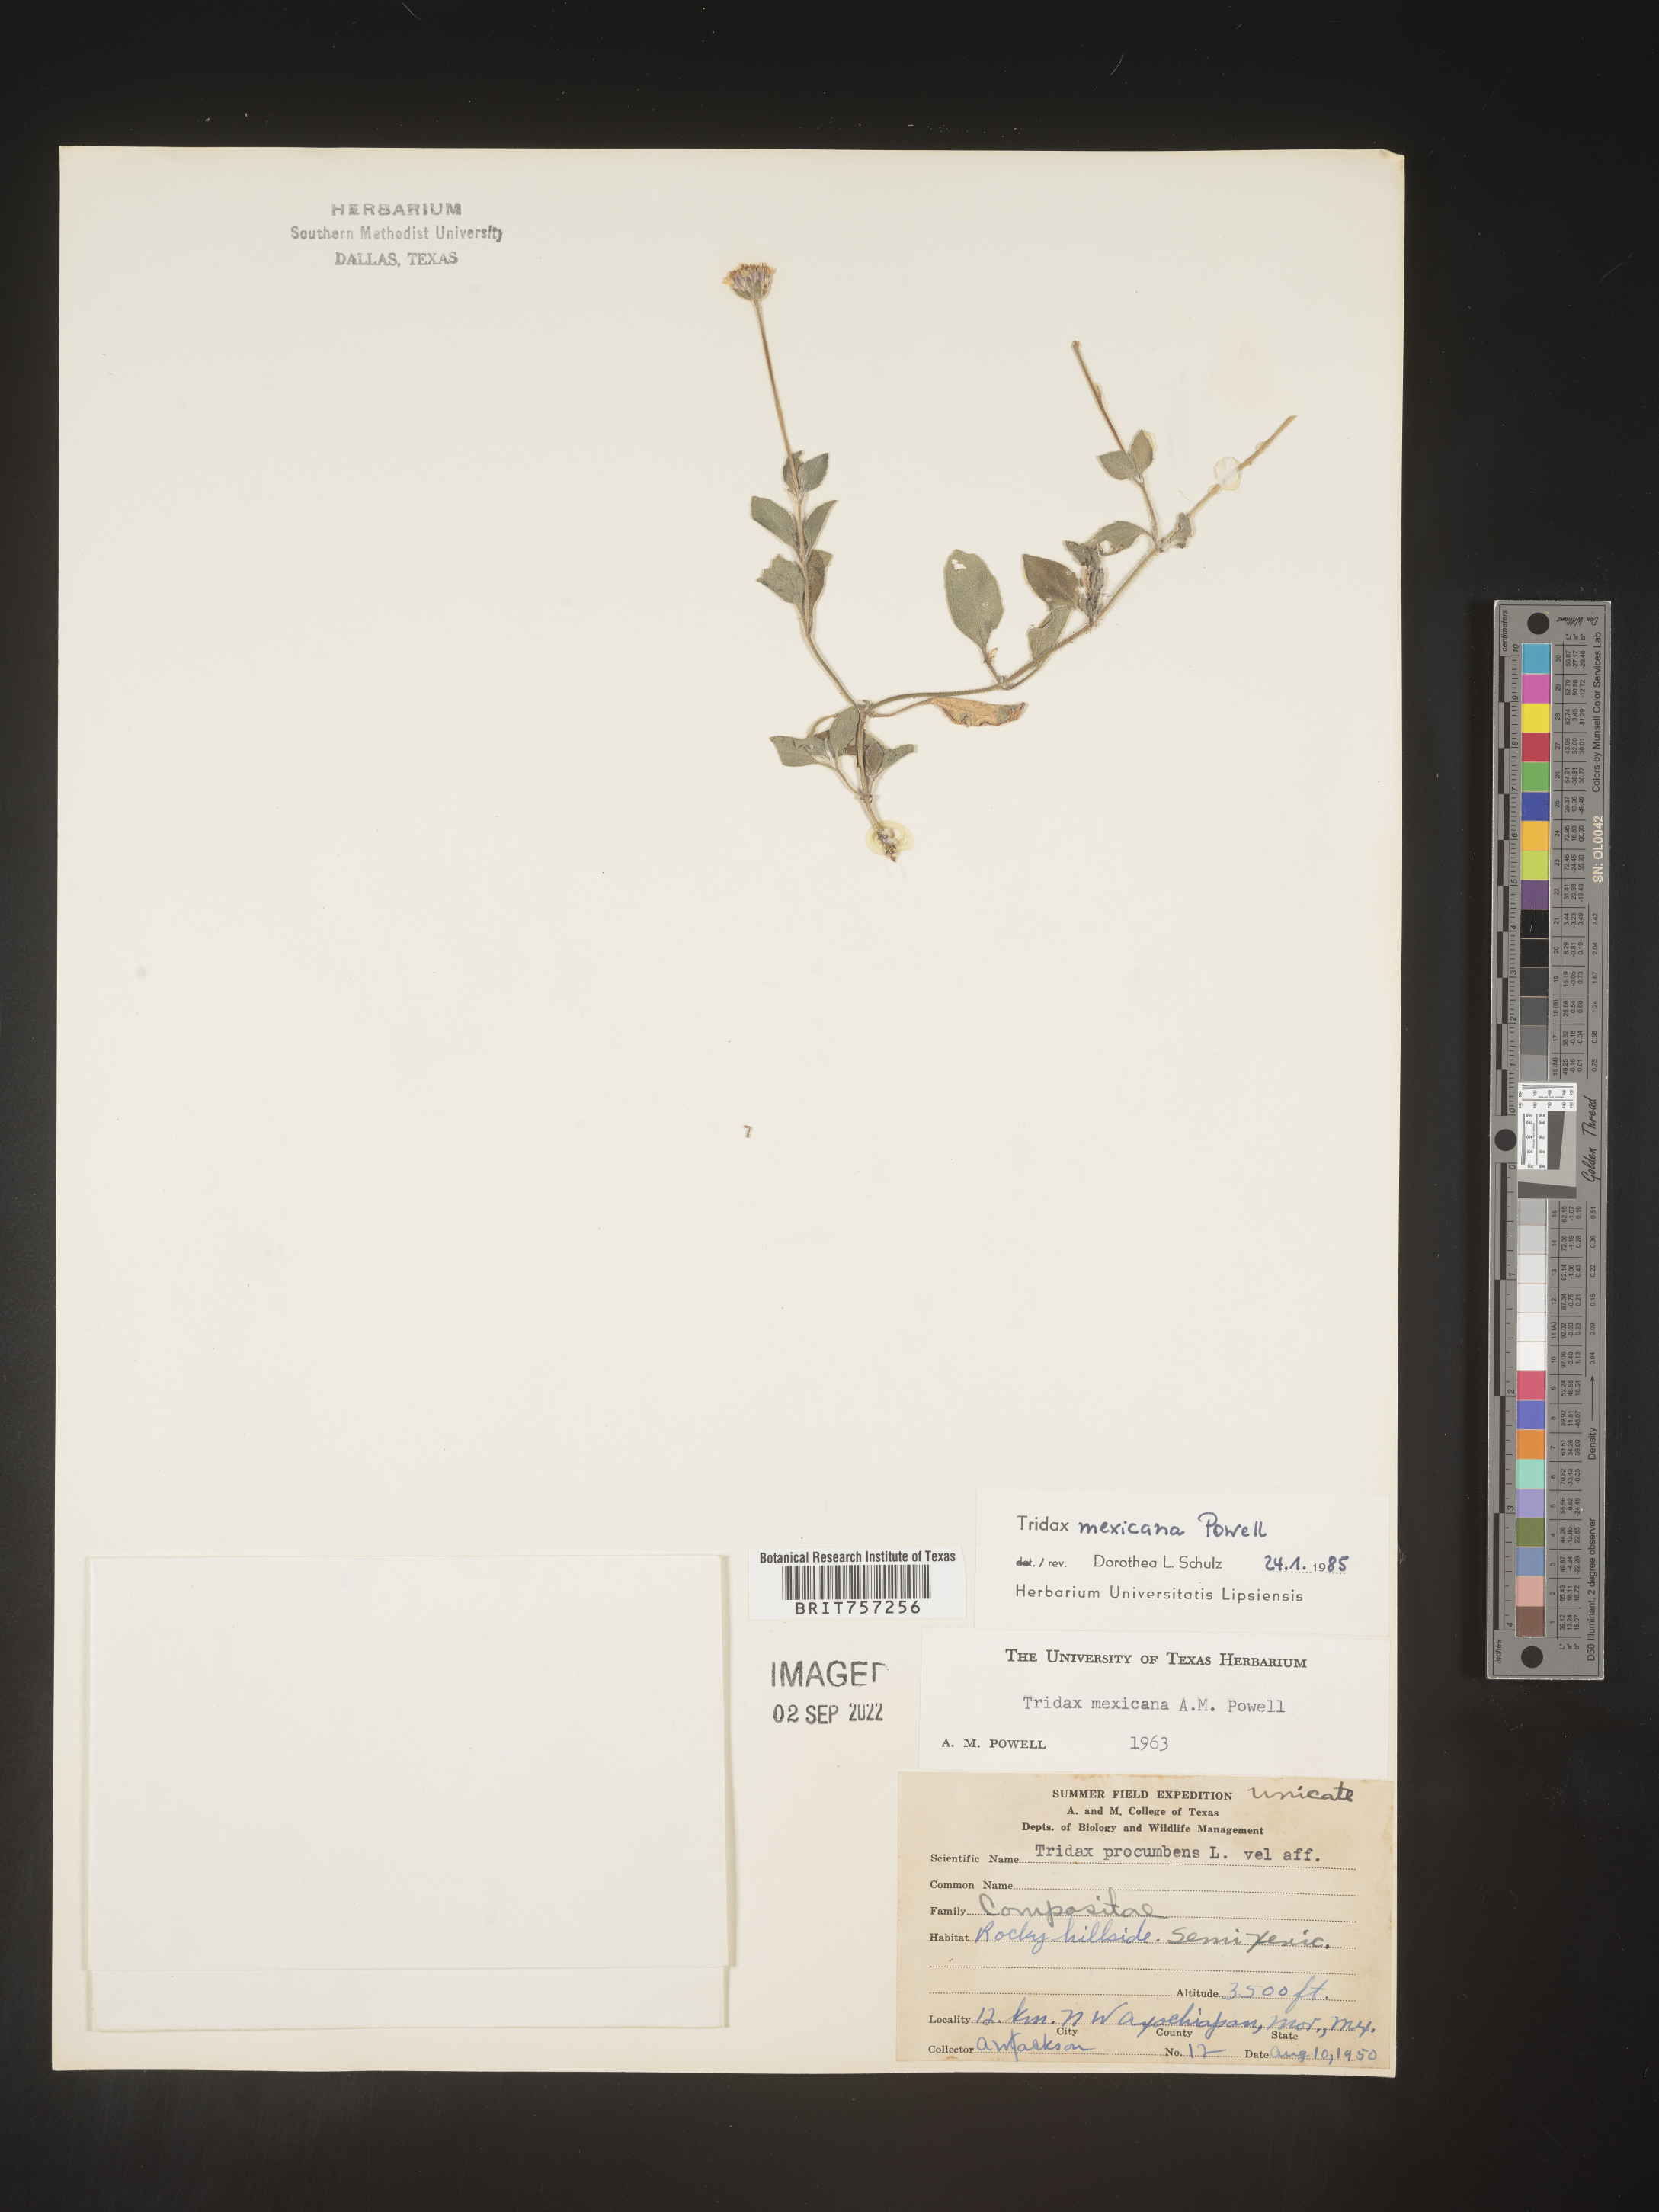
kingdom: Plantae
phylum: Tracheophyta
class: Magnoliopsida
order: Asterales
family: Asteraceae
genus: Tridax
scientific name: Tridax
